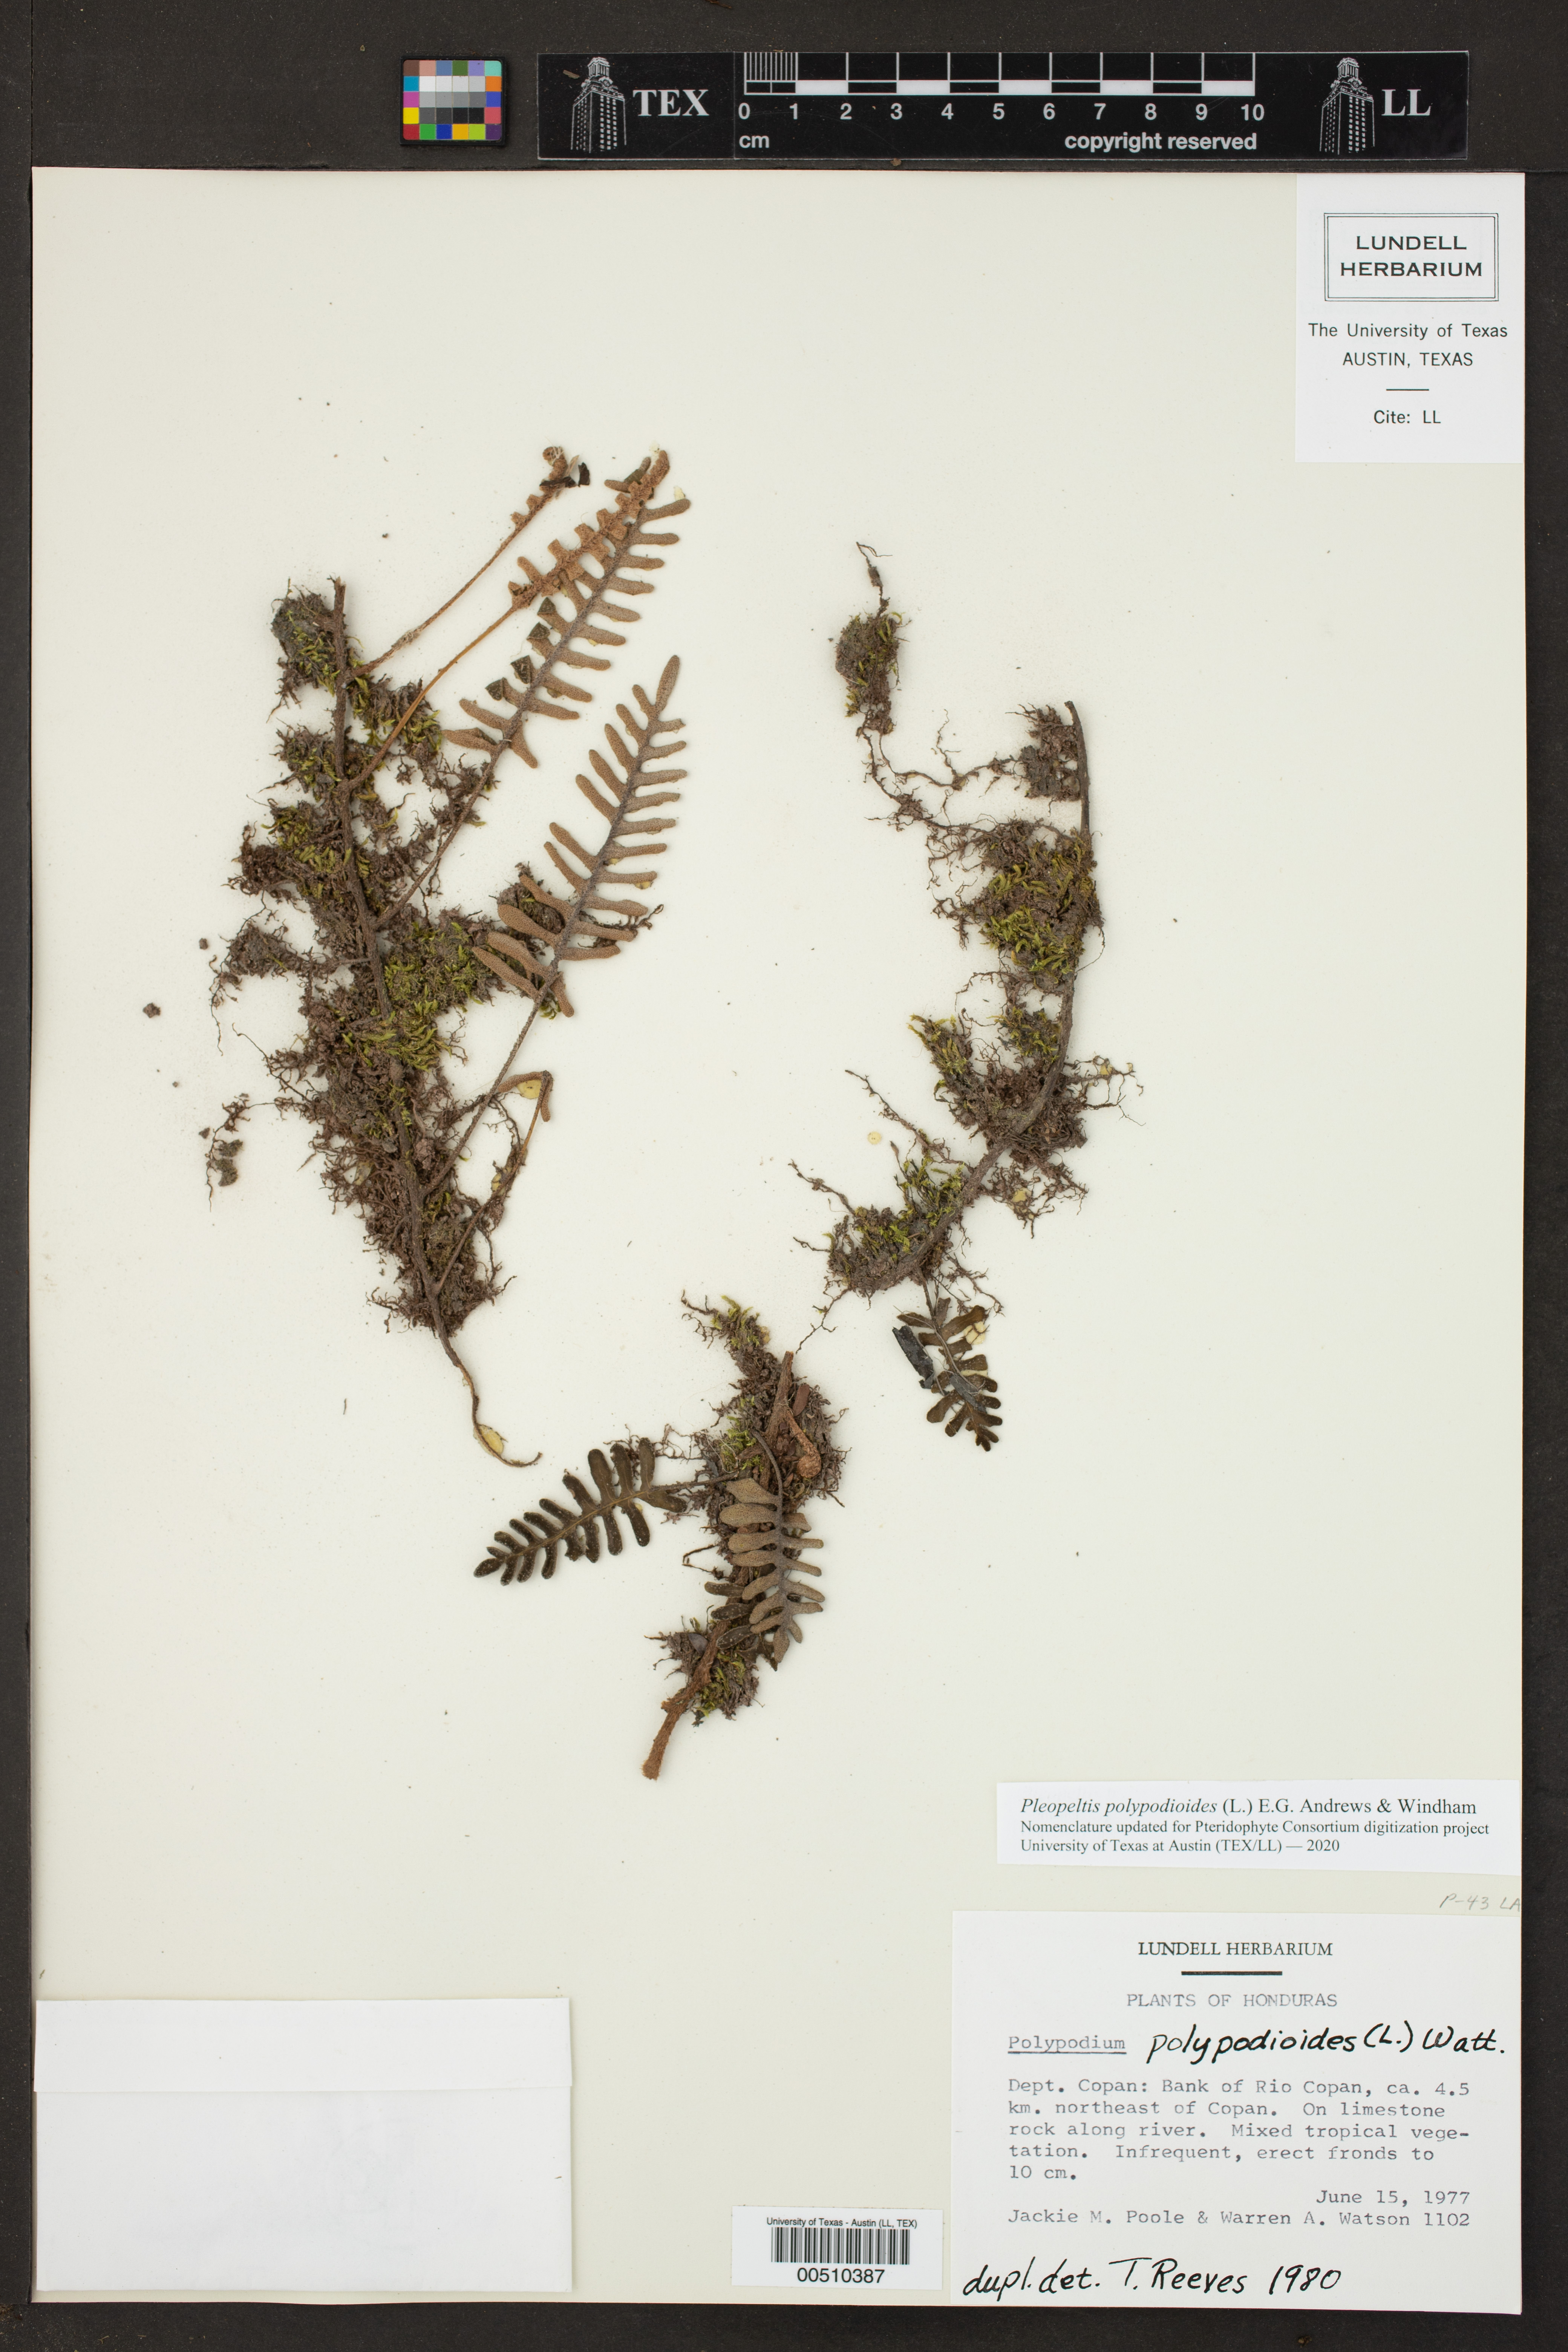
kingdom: Plantae
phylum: Tracheophyta
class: Polypodiopsida
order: Polypodiales
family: Polypodiaceae
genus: Pleopeltis
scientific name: Pleopeltis polypodioides
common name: Resurrection fern
